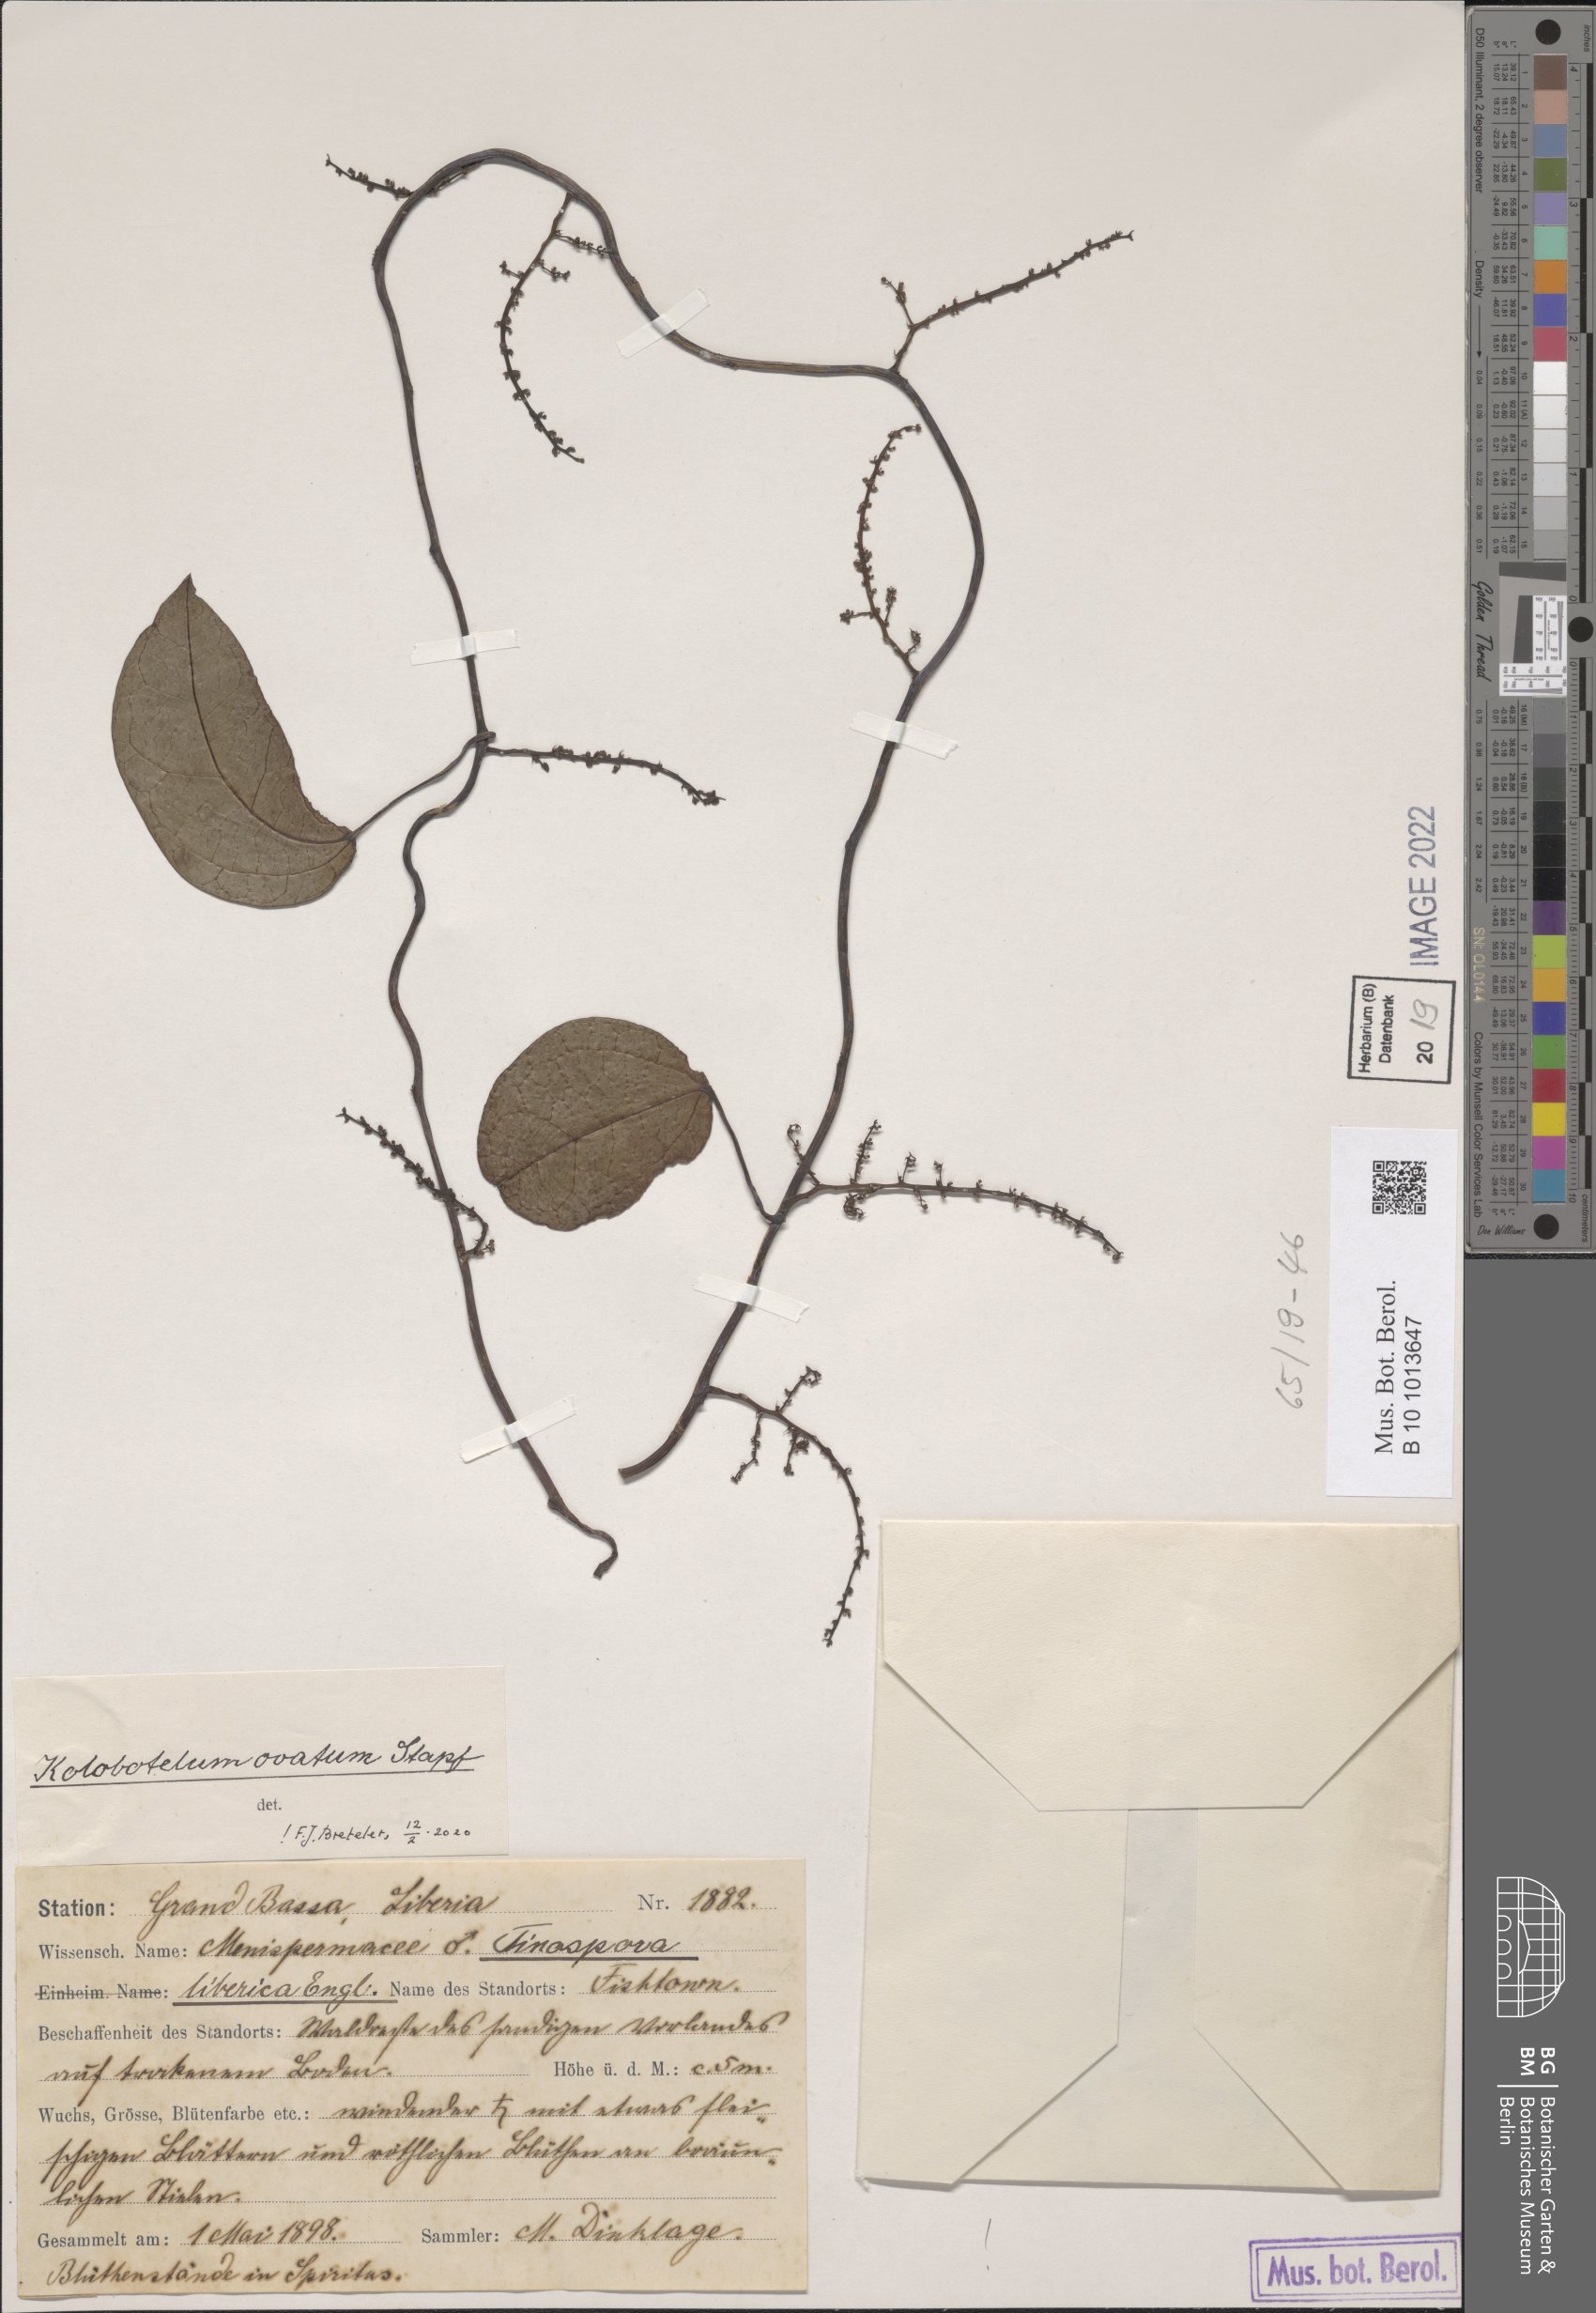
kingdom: Plantae
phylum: Tracheophyta
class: Magnoliopsida
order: Ranunculales
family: Menispermaceae
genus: Kolobopetalum
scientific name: Kolobopetalum ovatum
